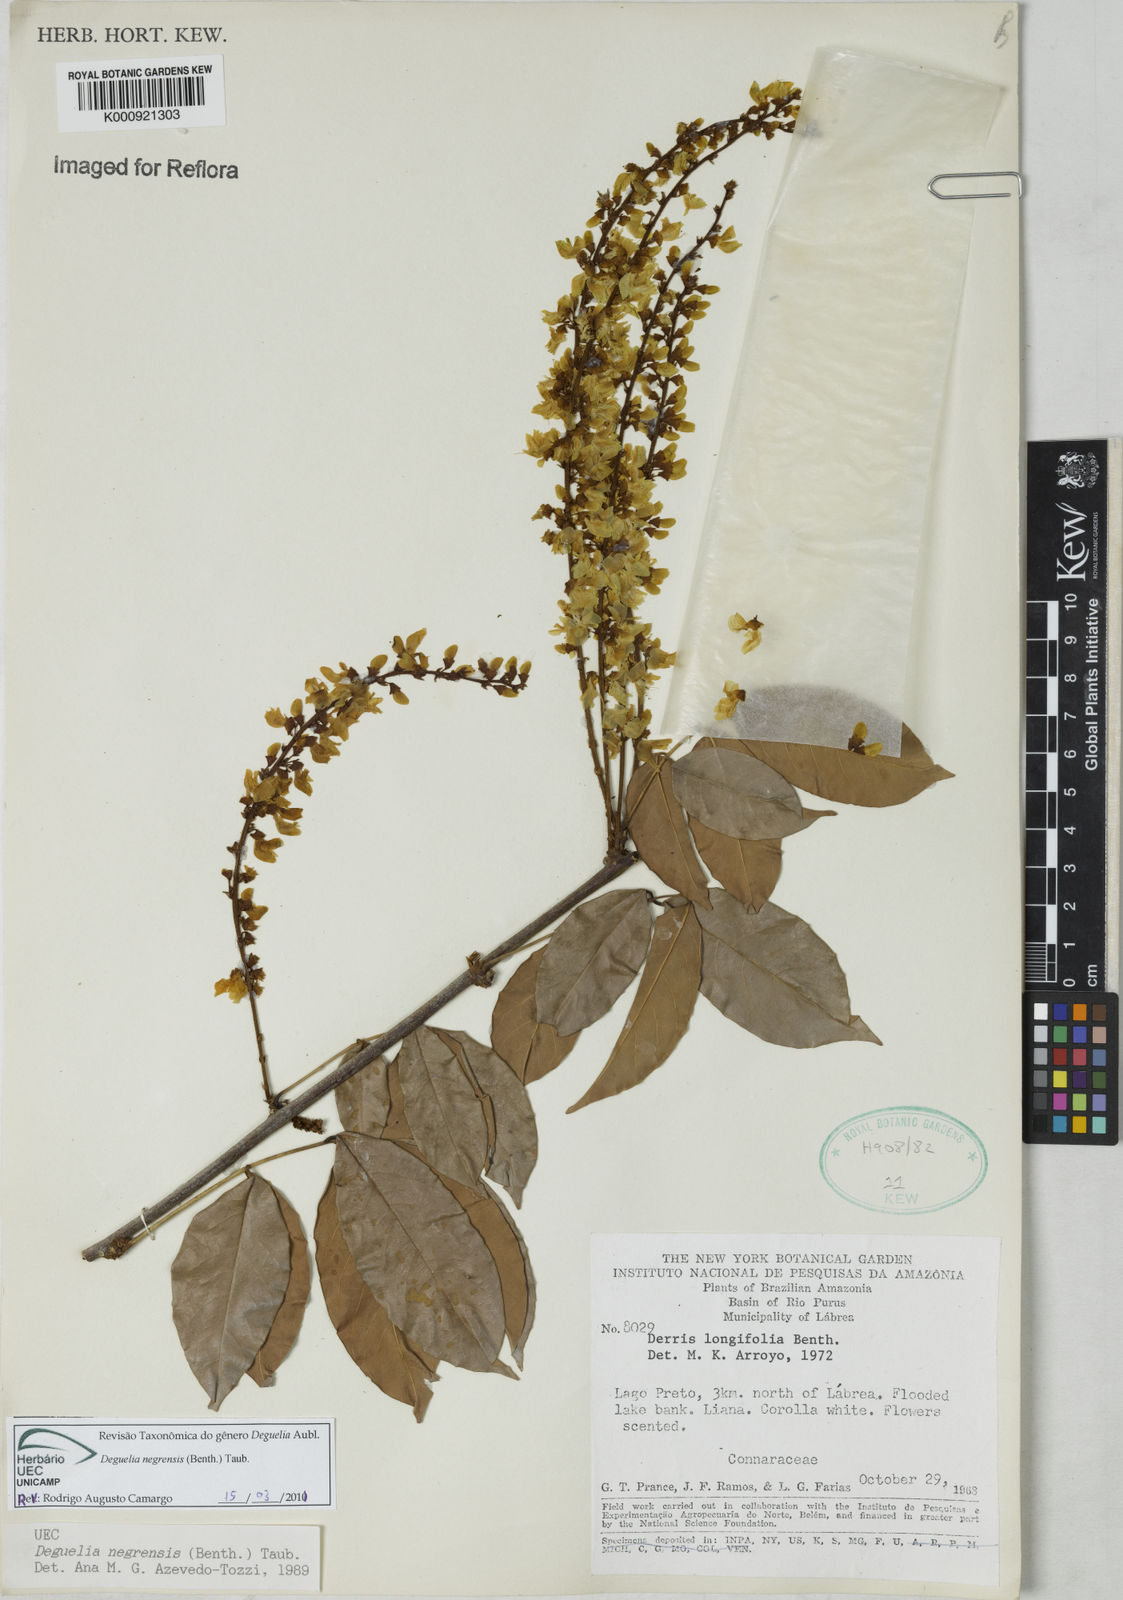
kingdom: Plantae
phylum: Tracheophyta
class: Magnoliopsida
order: Fabales
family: Fabaceae
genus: Deguelia
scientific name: Deguelia negrensis
